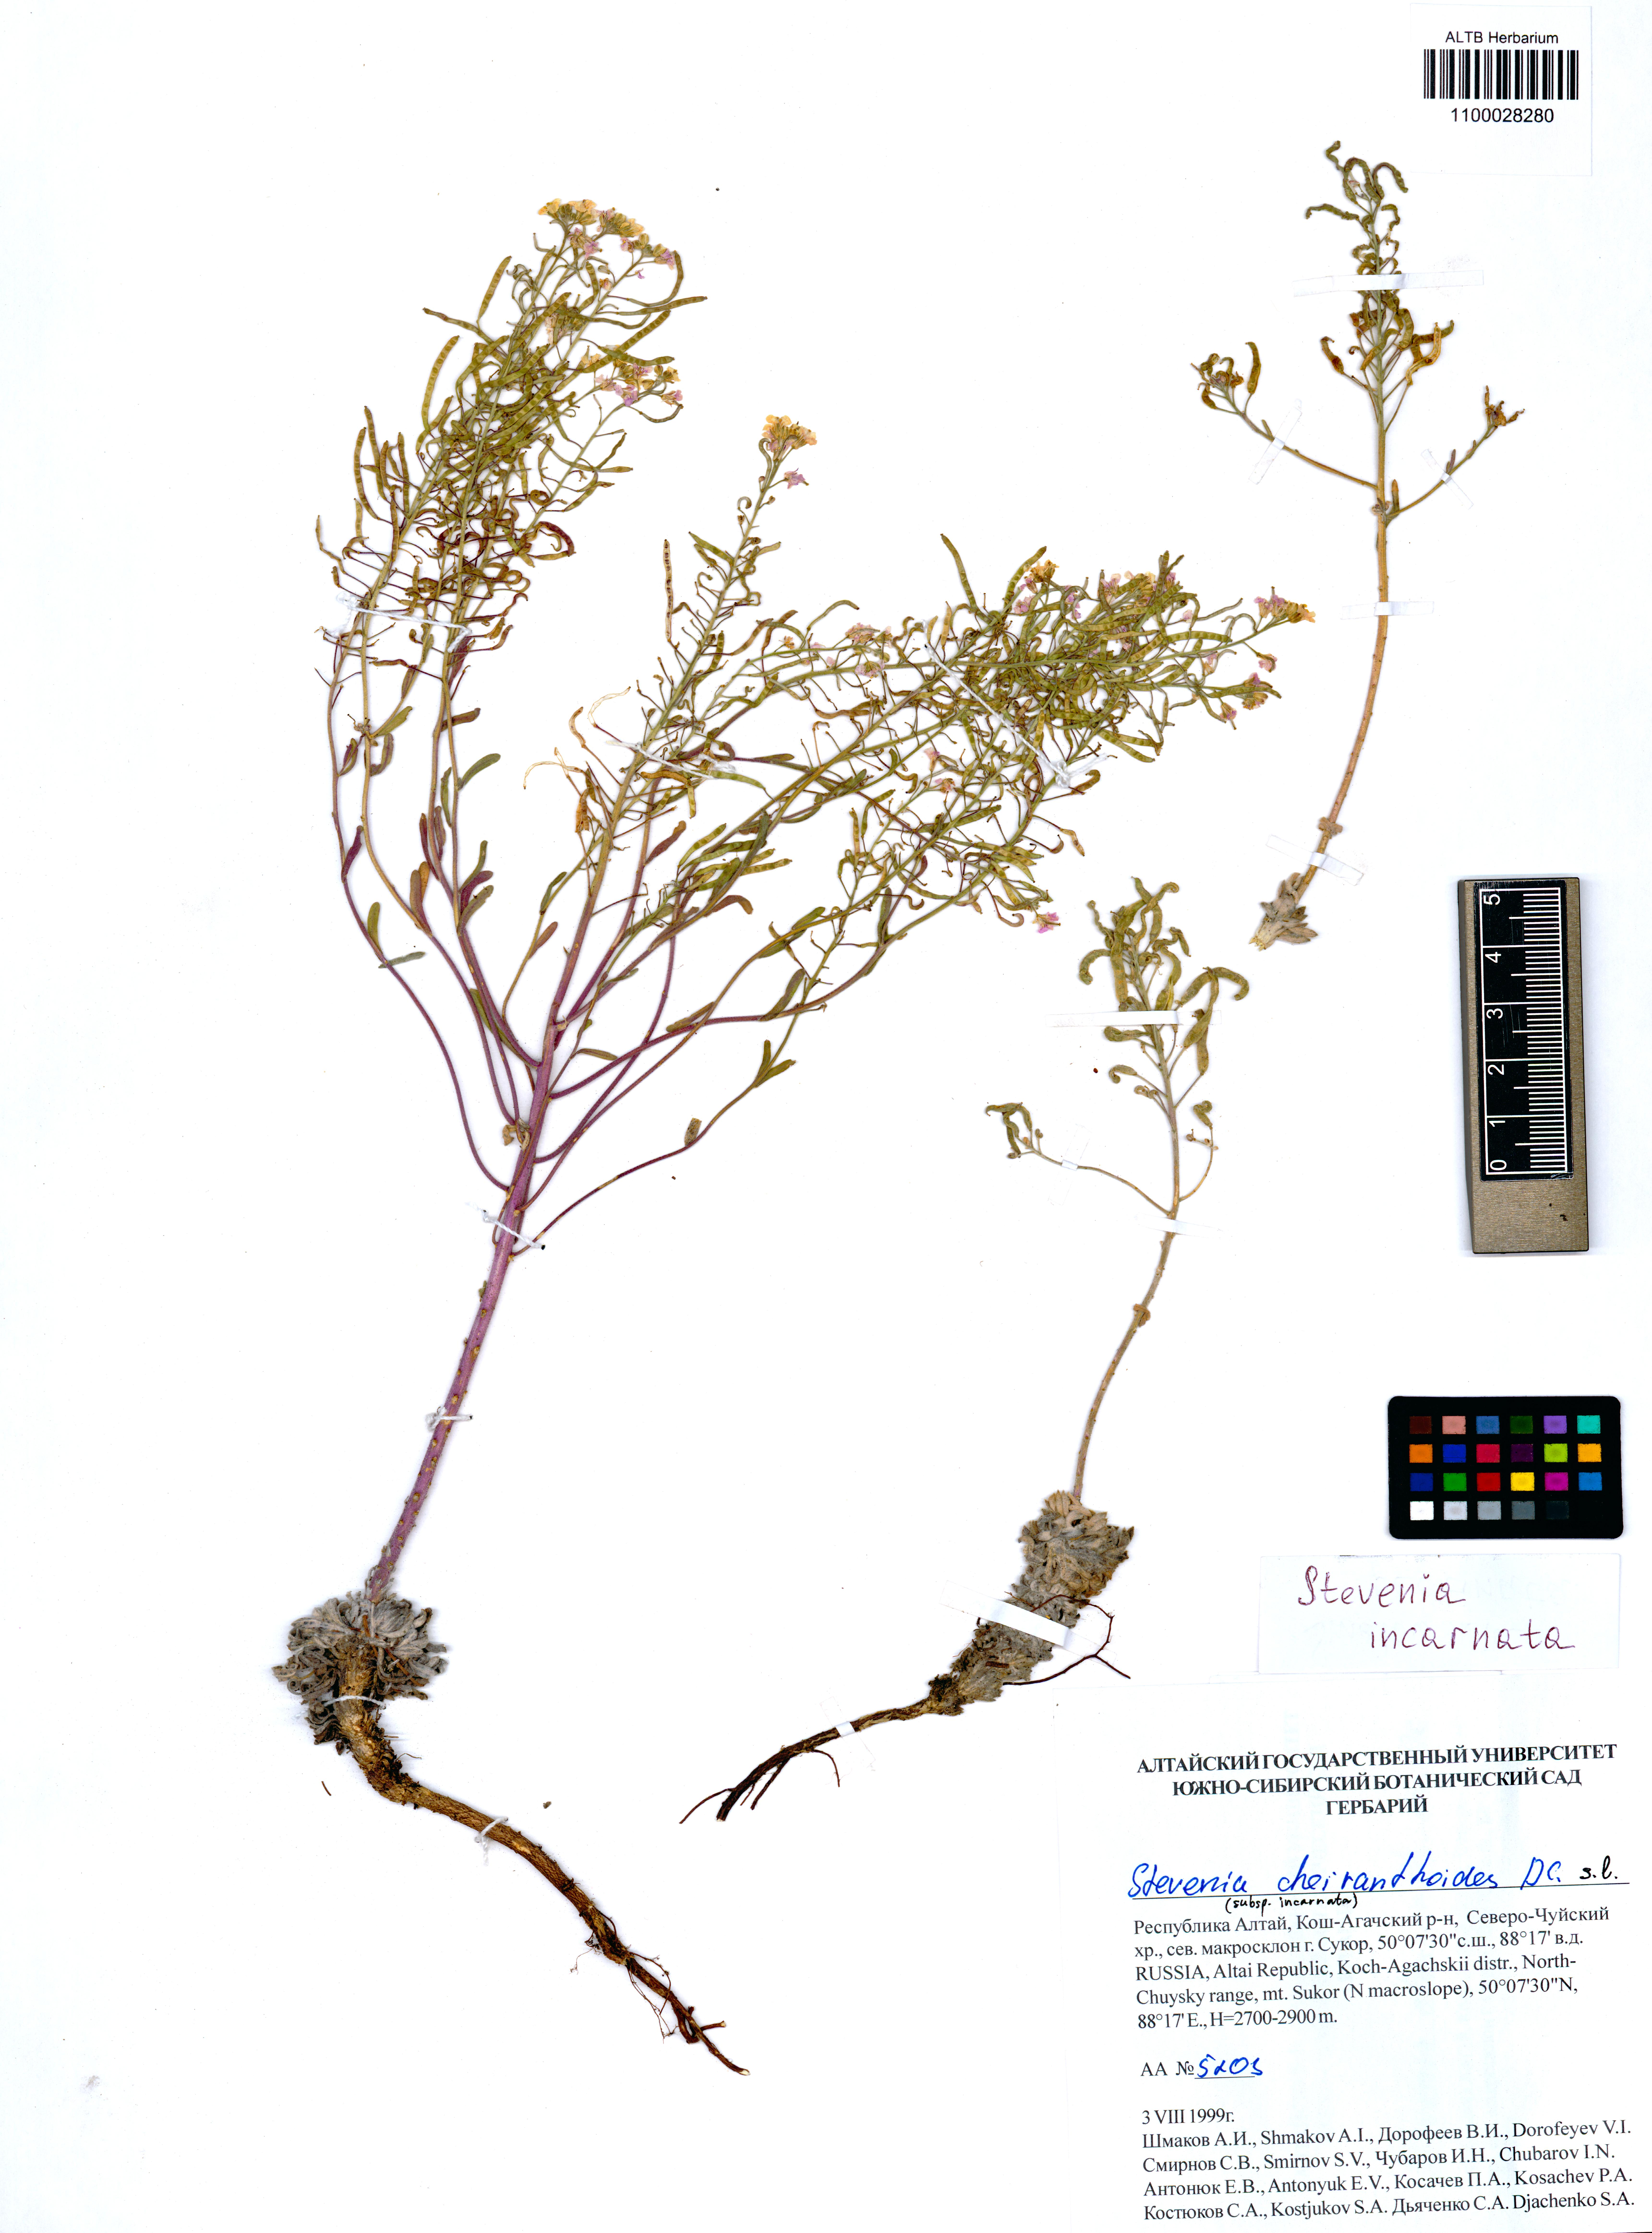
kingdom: Plantae
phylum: Tracheophyta
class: Magnoliopsida
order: Brassicales
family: Brassicaceae
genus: Stevenia
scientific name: Stevenia incarnata
